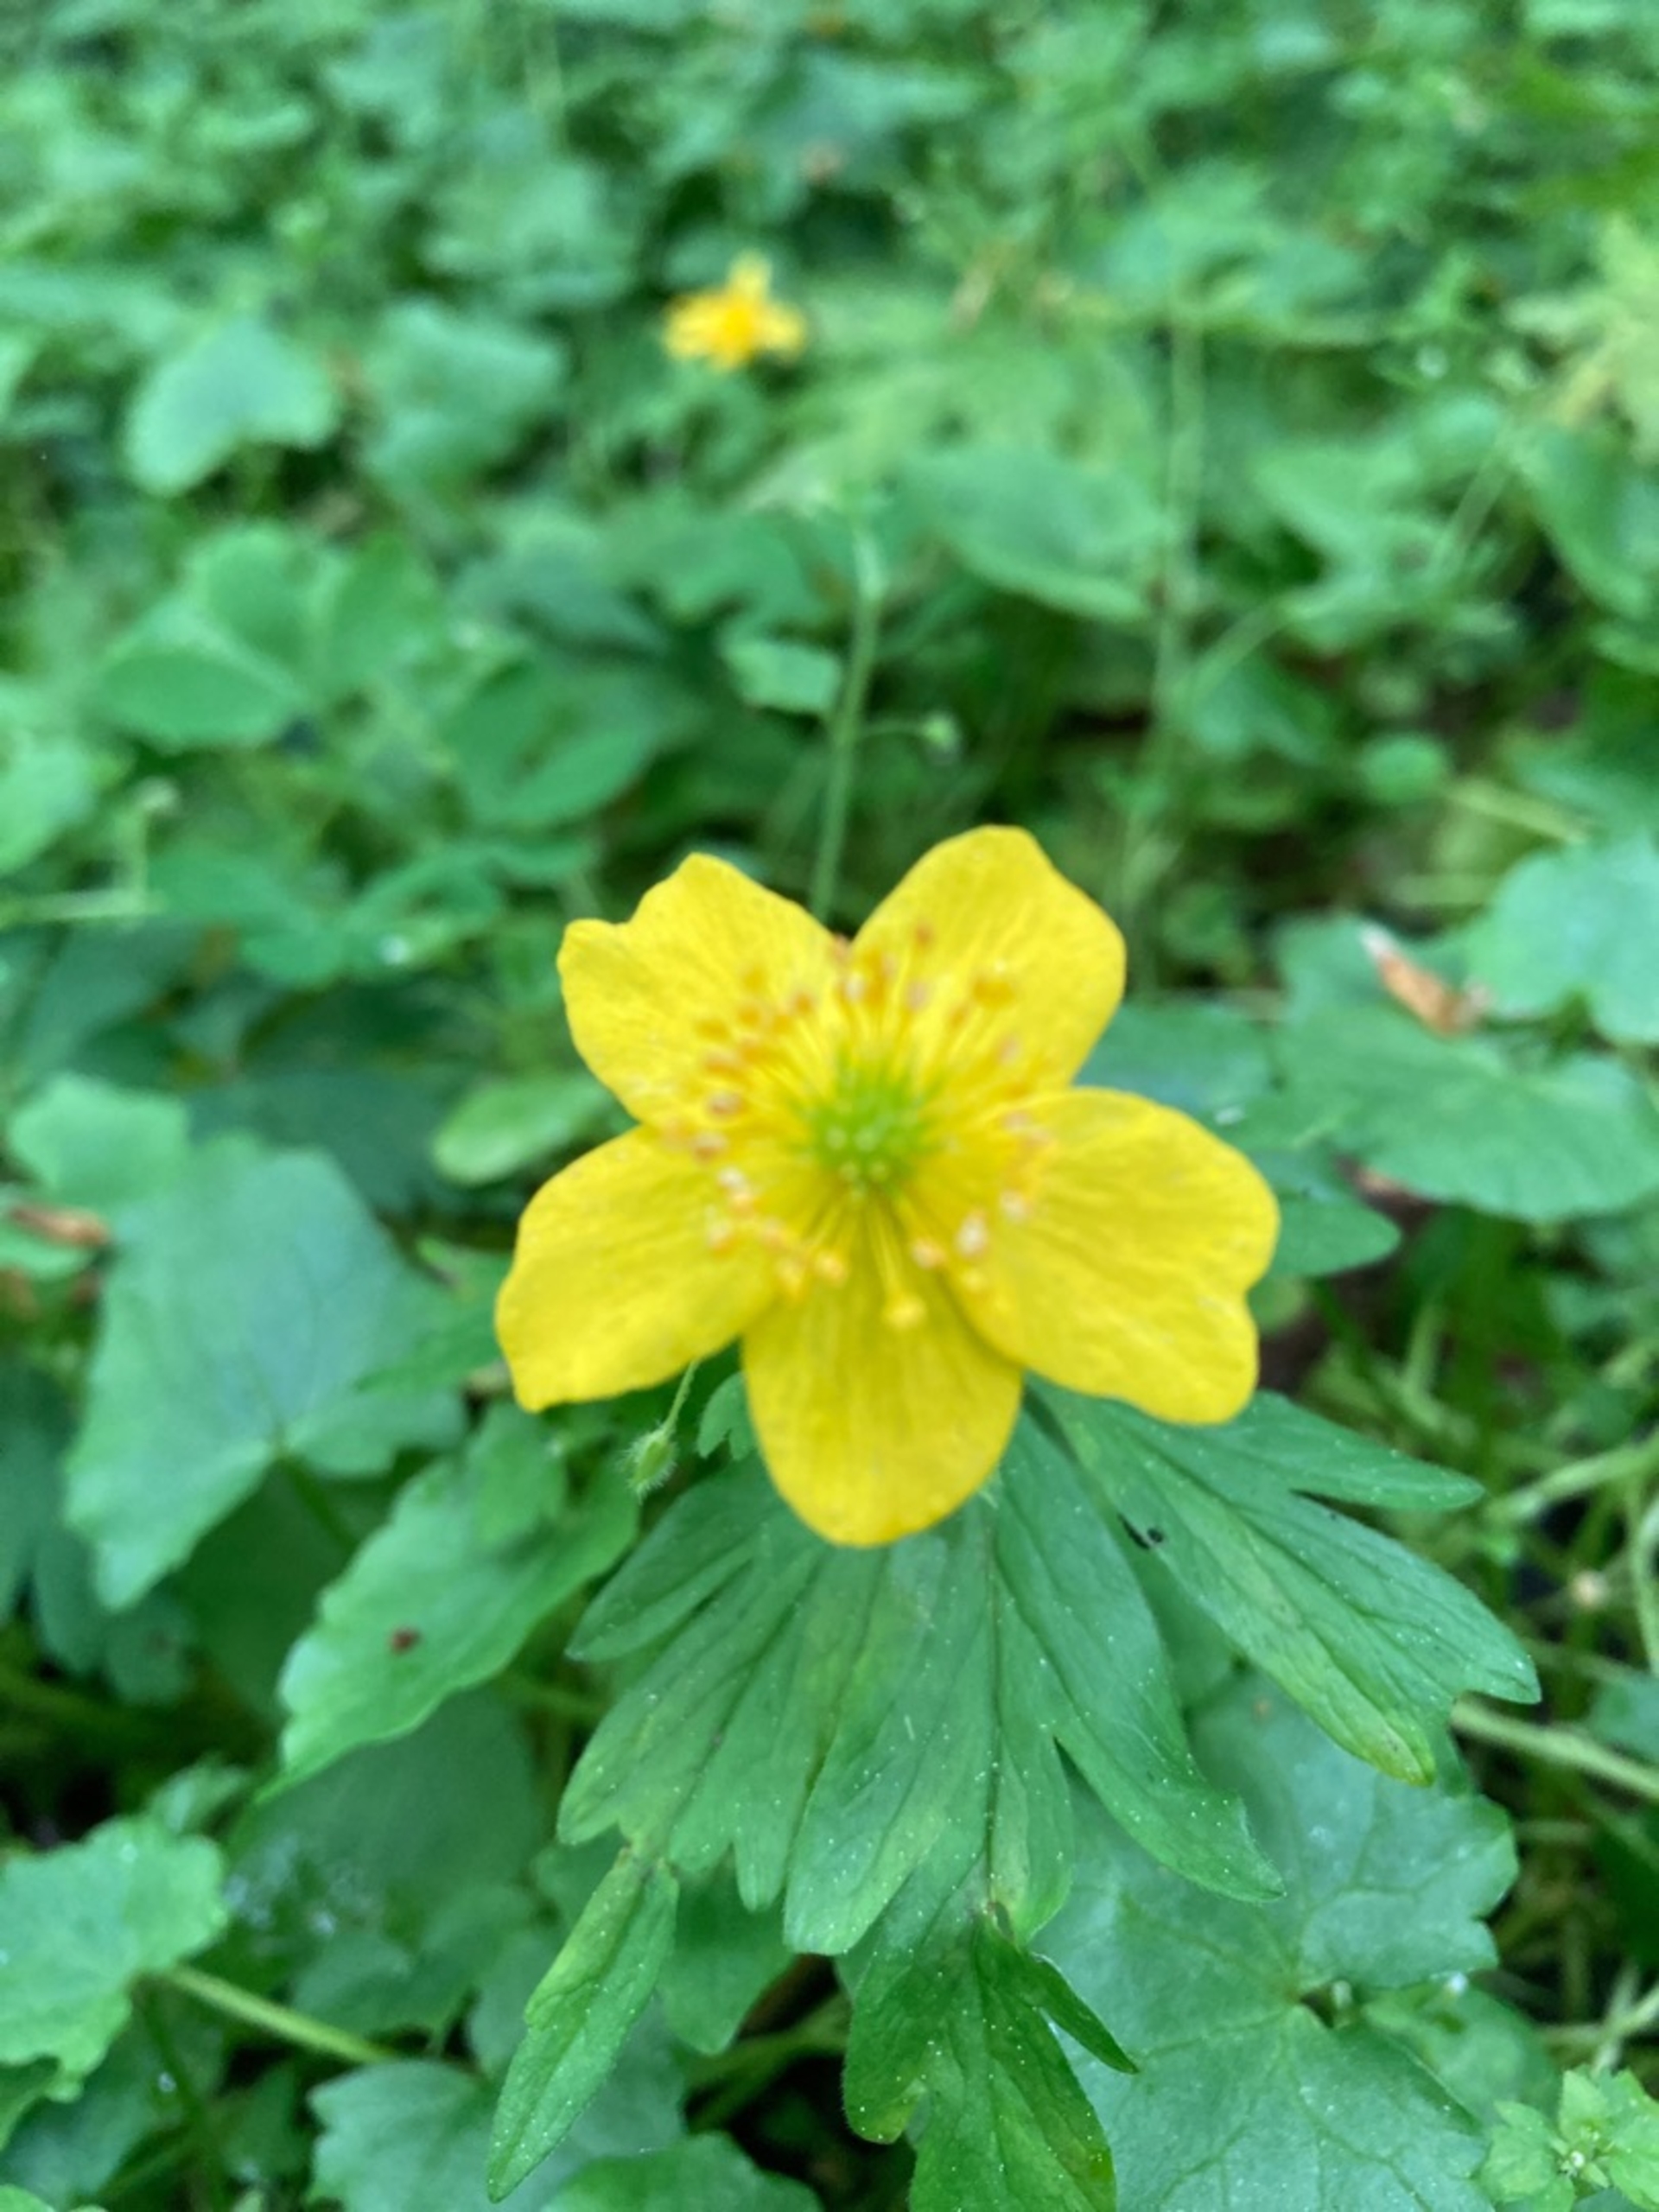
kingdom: Plantae
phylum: Tracheophyta
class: Magnoliopsida
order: Ranunculales
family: Ranunculaceae
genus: Anemone
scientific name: Anemone ranunculoides
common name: Gul anemone
